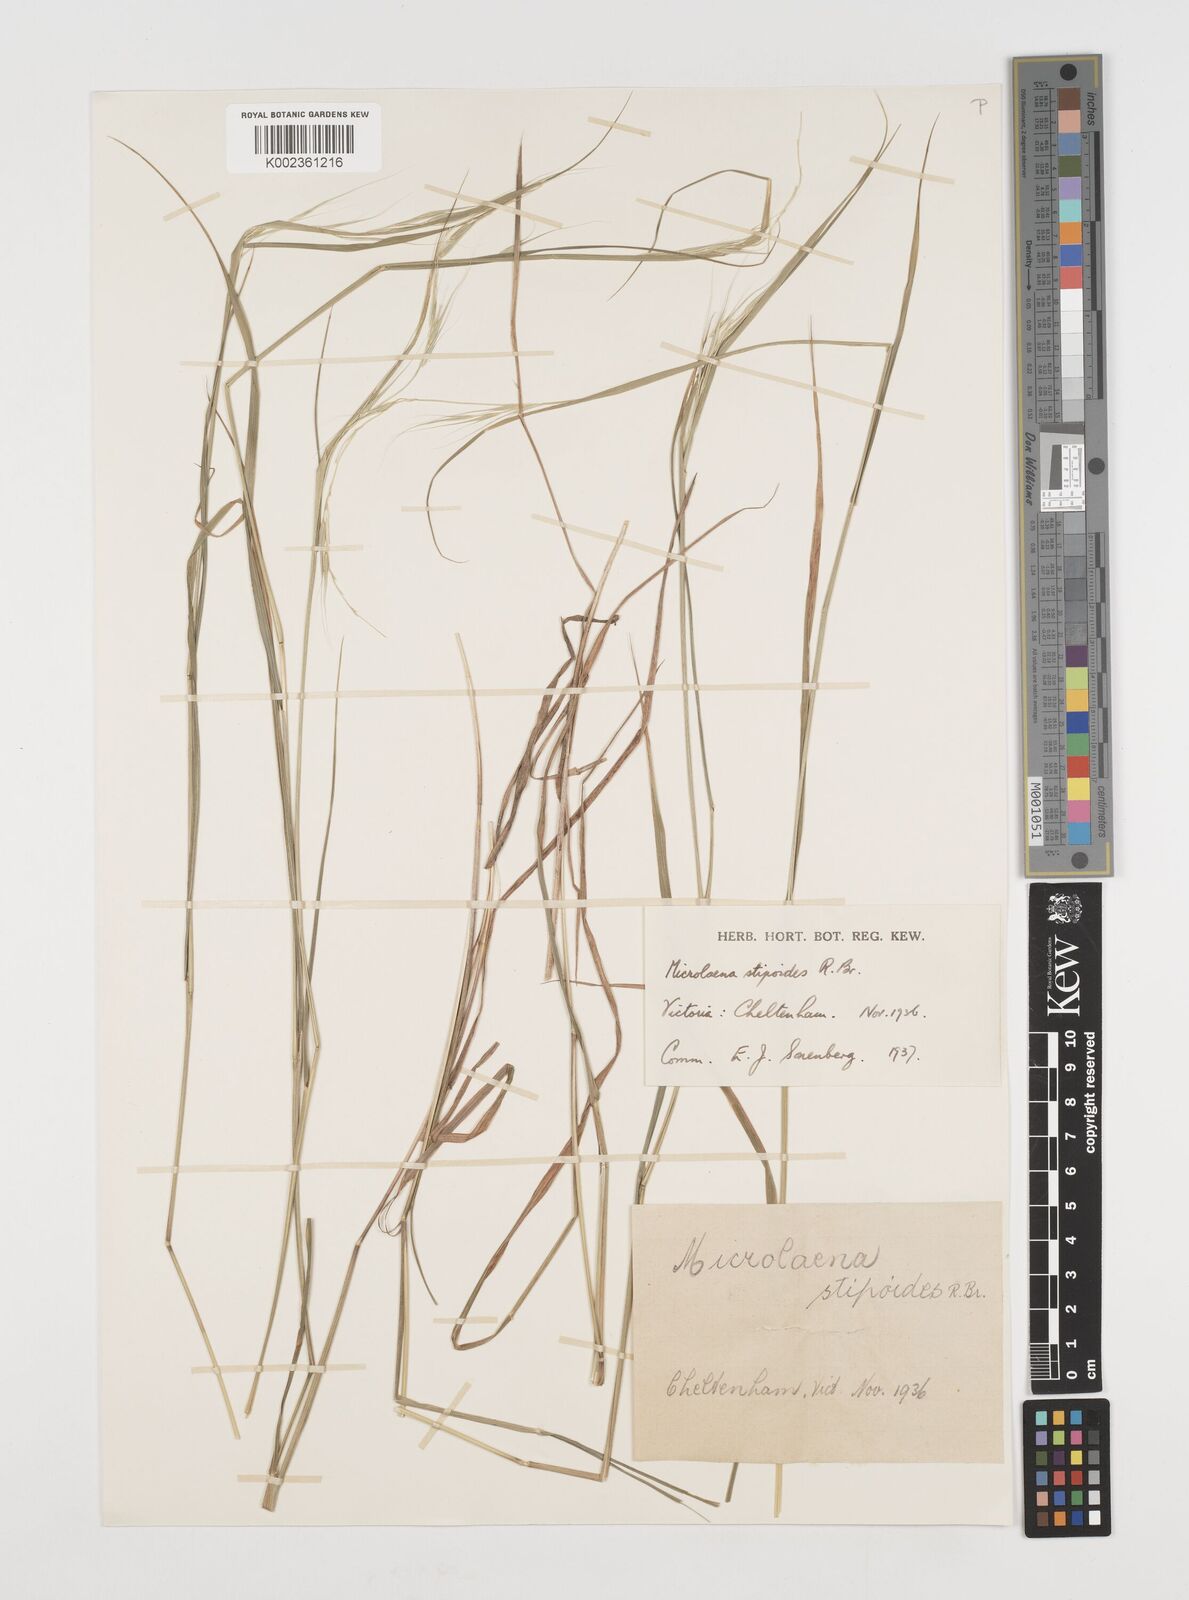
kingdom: Plantae
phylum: Tracheophyta
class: Liliopsida
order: Poales
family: Poaceae
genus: Microlaena
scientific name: Microlaena stipoides
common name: Meadow ricegrass
